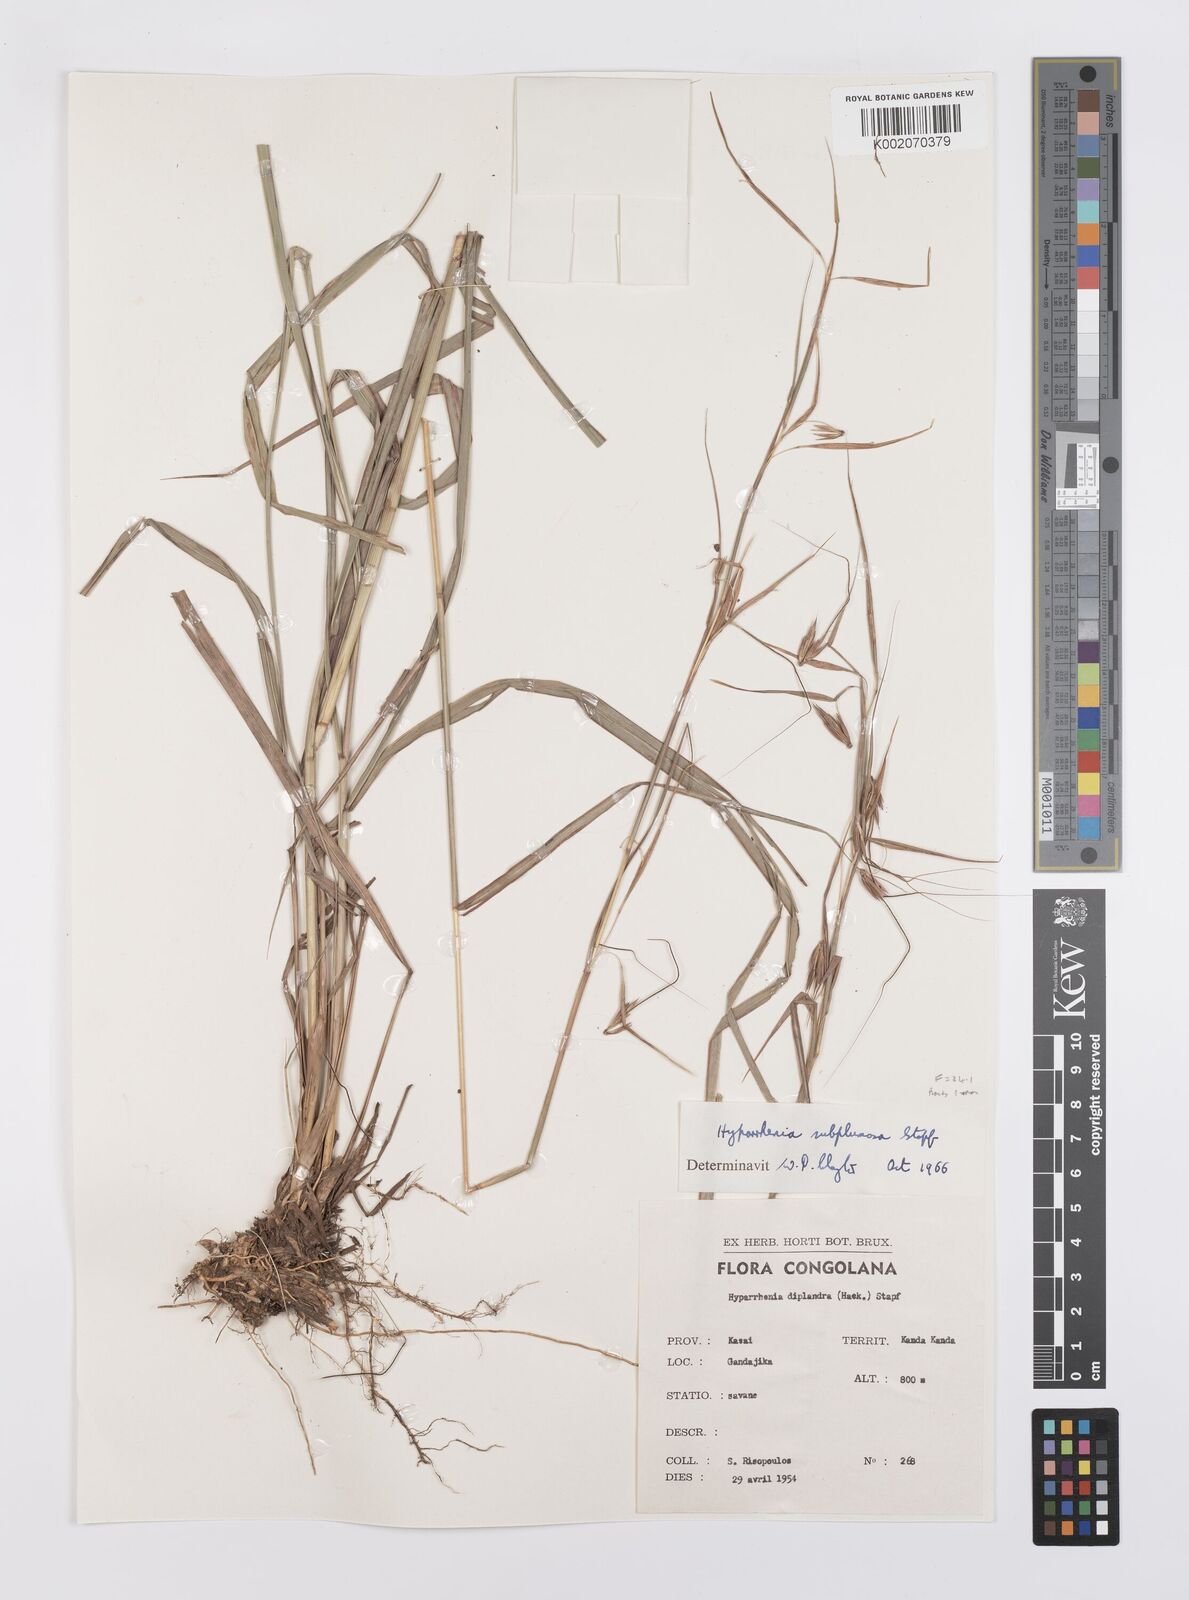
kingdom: Plantae
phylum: Tracheophyta
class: Liliopsida
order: Poales
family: Poaceae
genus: Hyparrhenia
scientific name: Hyparrhenia subplumosa
